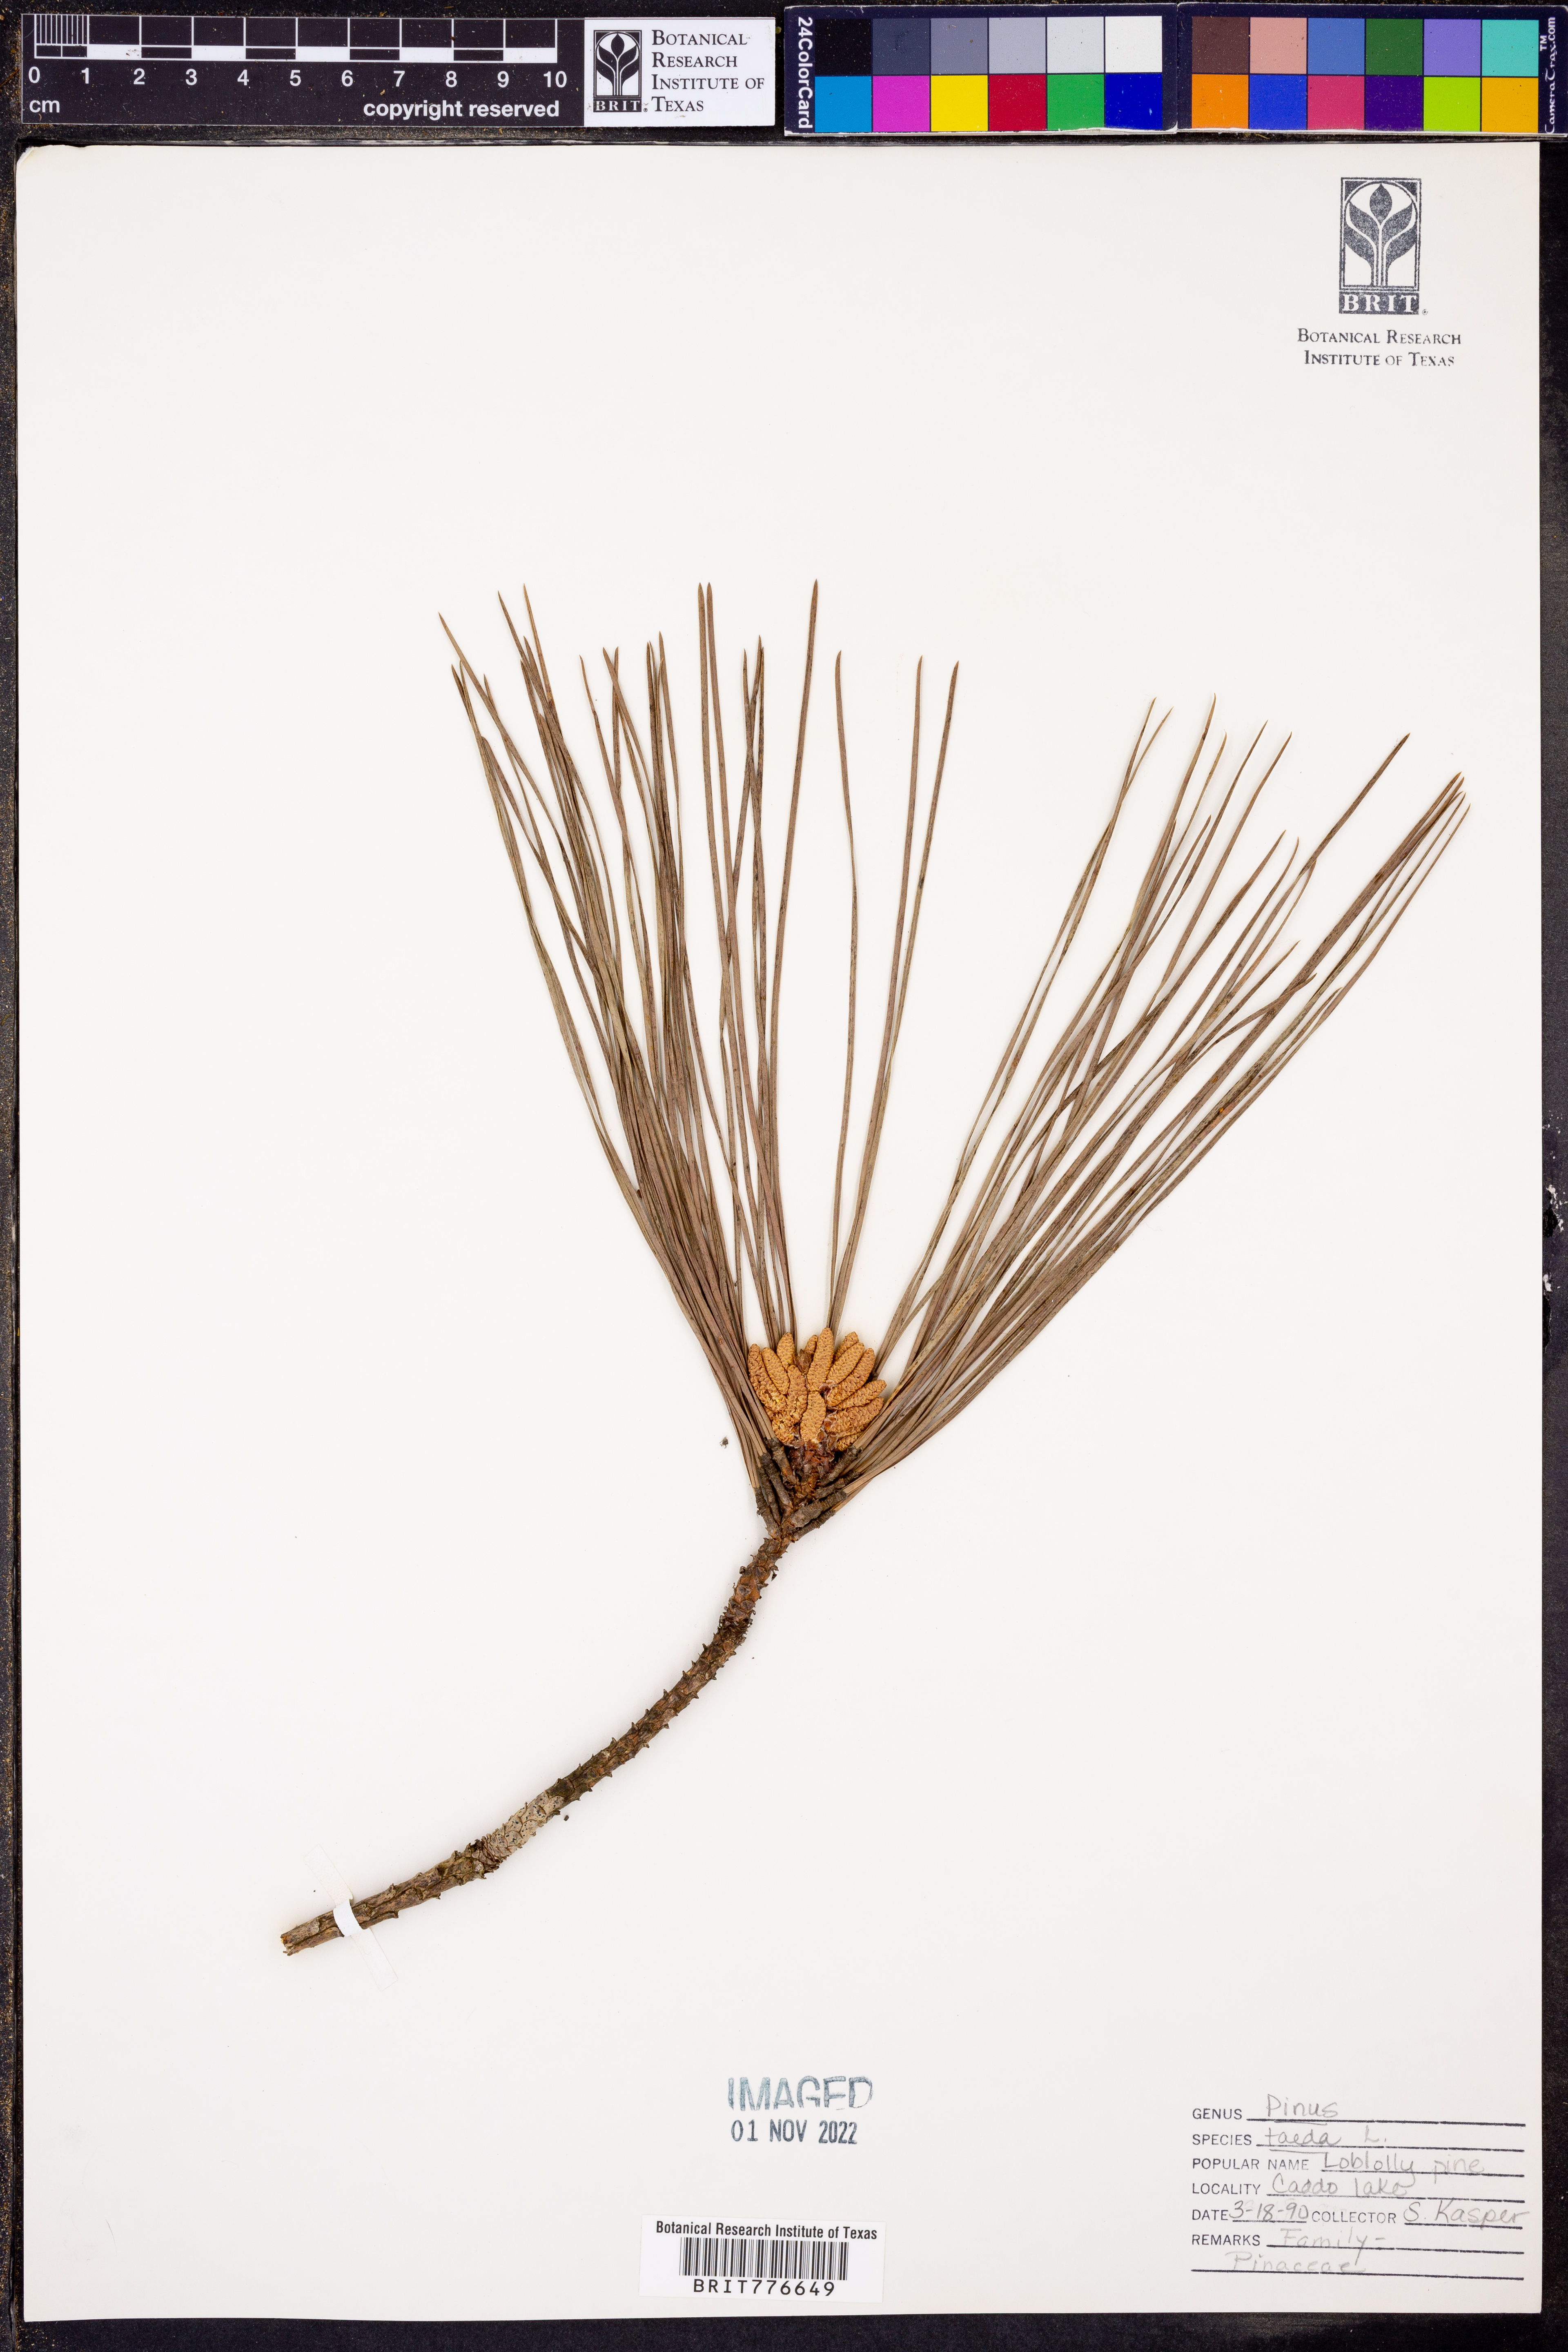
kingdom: Plantae
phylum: Tracheophyta
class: Pinopsida
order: Pinales
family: Pinaceae
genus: Pinus
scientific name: Pinus taeda
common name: Loblolly pine
